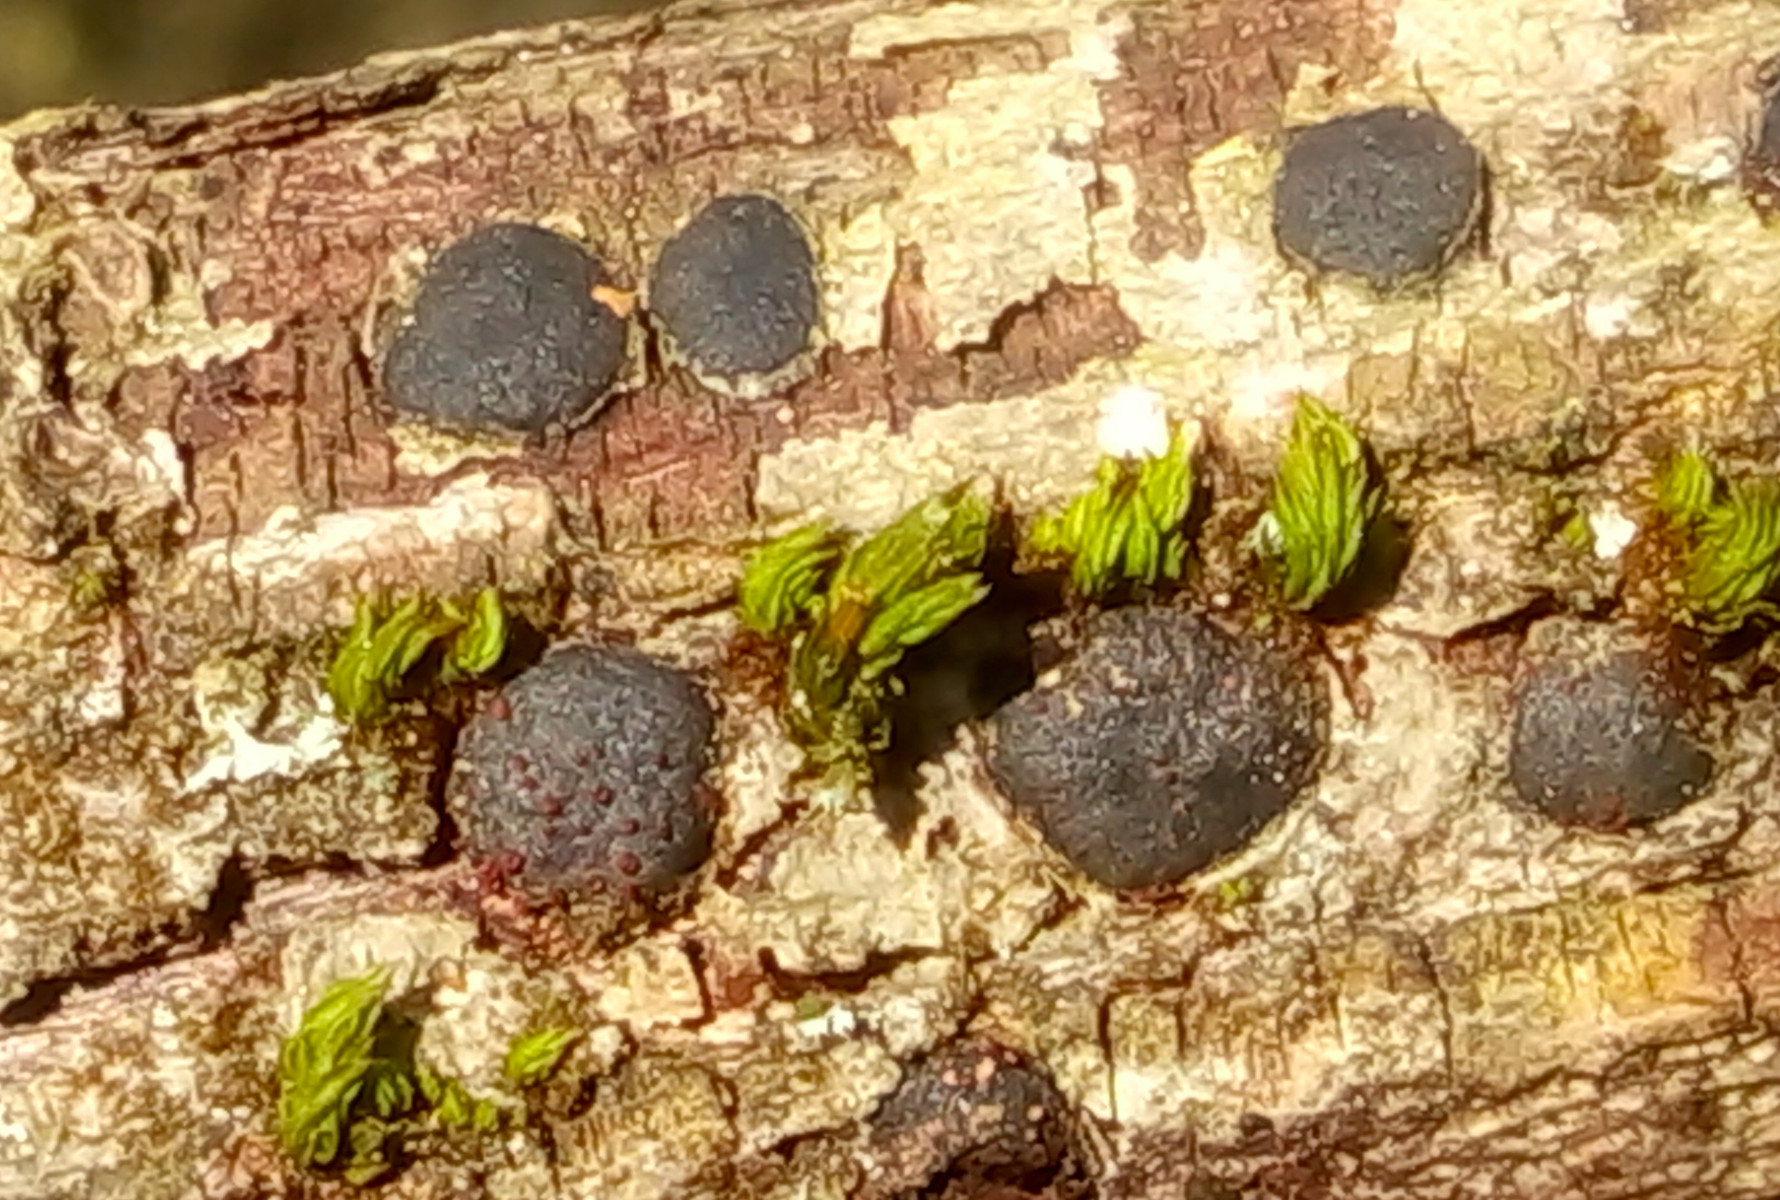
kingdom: Fungi
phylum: Ascomycota
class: Sordariomycetes
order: Xylariales
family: Diatrypaceae
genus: Diatrype
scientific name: Diatrype bullata
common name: pile-kulskorpe
